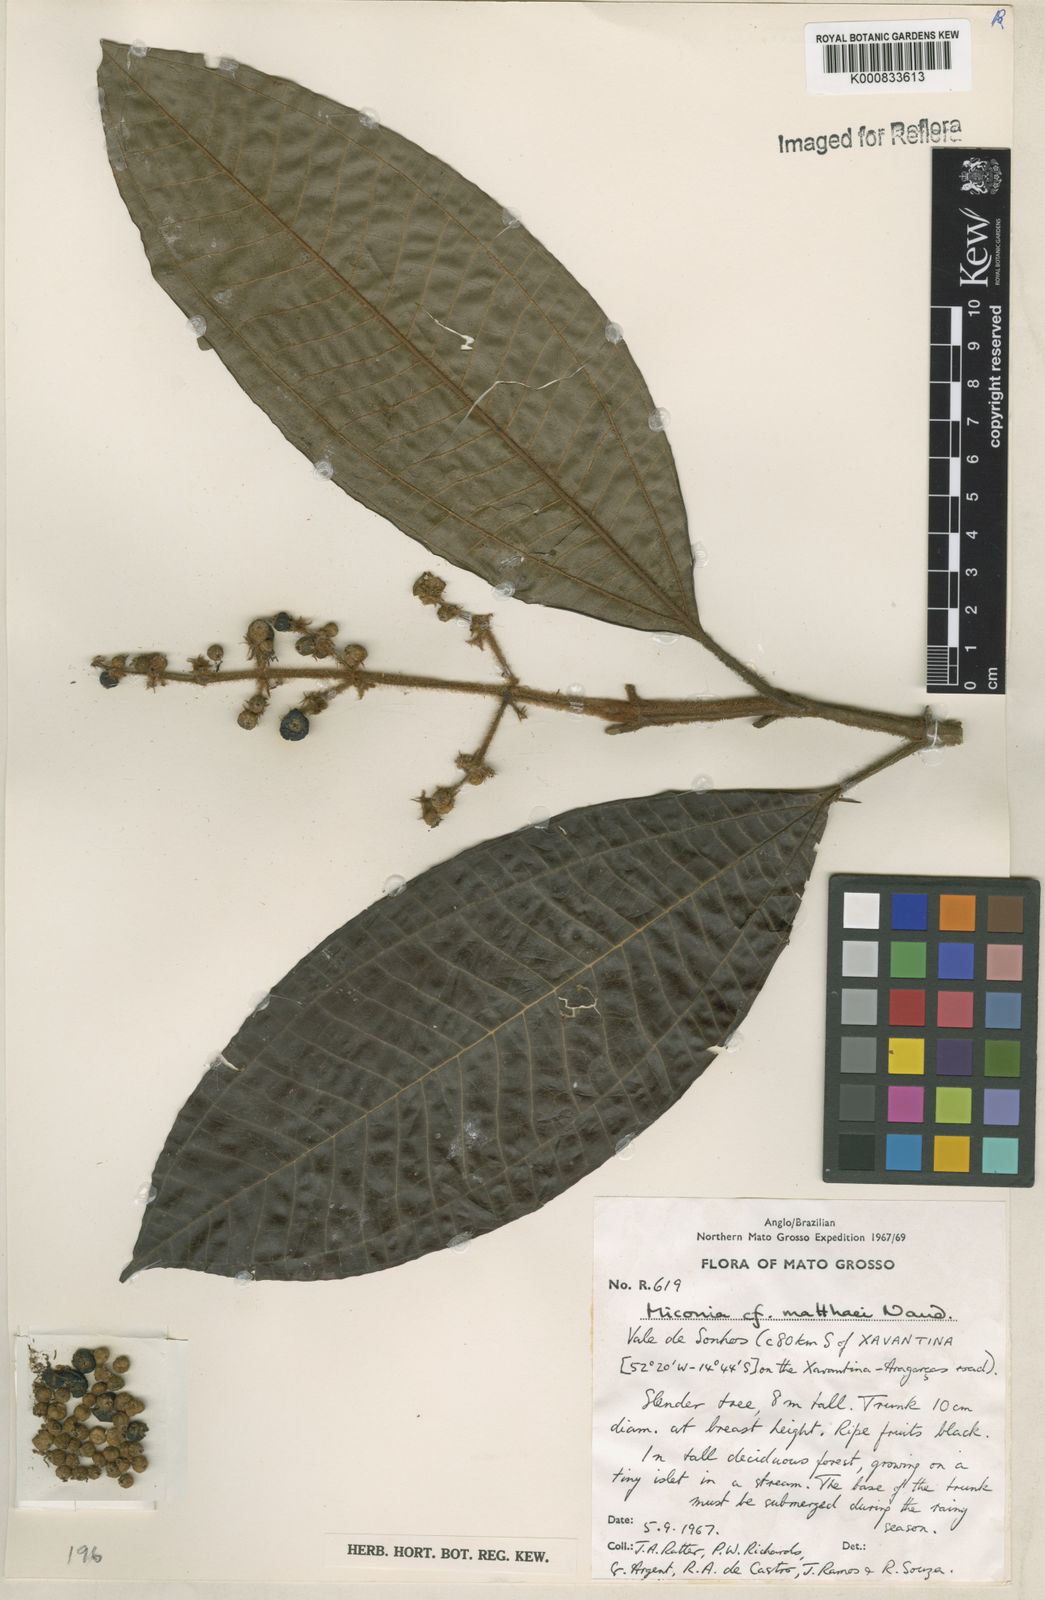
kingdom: Plantae
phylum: Tracheophyta
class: Magnoliopsida
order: Myrtales
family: Melastomataceae
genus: Miconia
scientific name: Miconia matthaei
